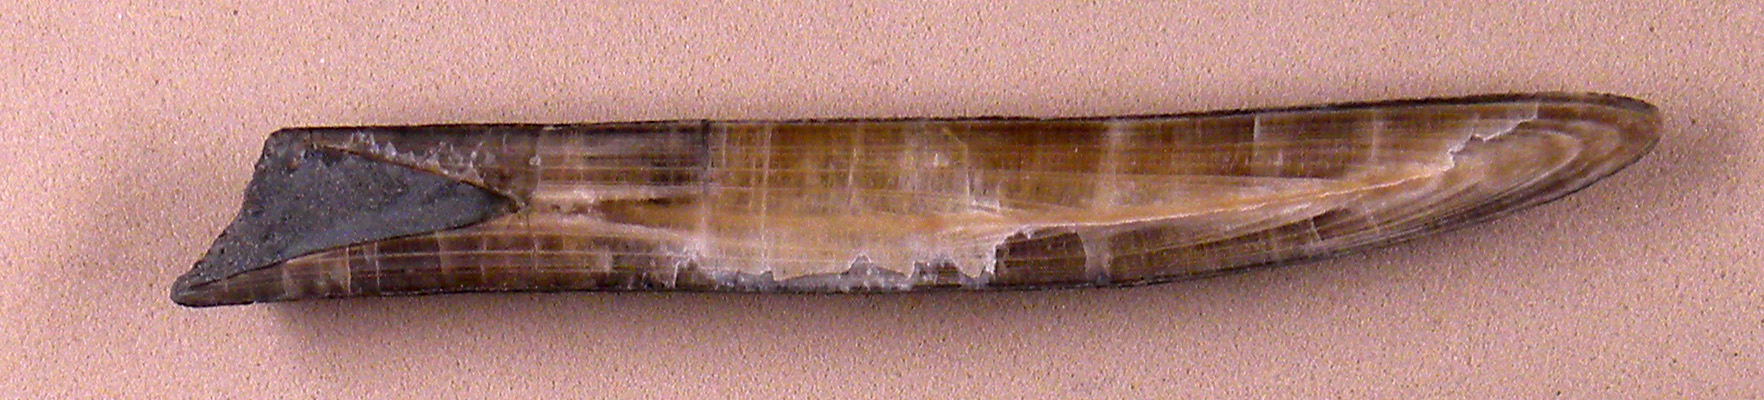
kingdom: Animalia
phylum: Mollusca
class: Cephalopoda
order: Belemnitida
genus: Gastrobelus
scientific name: Gastrobelus
